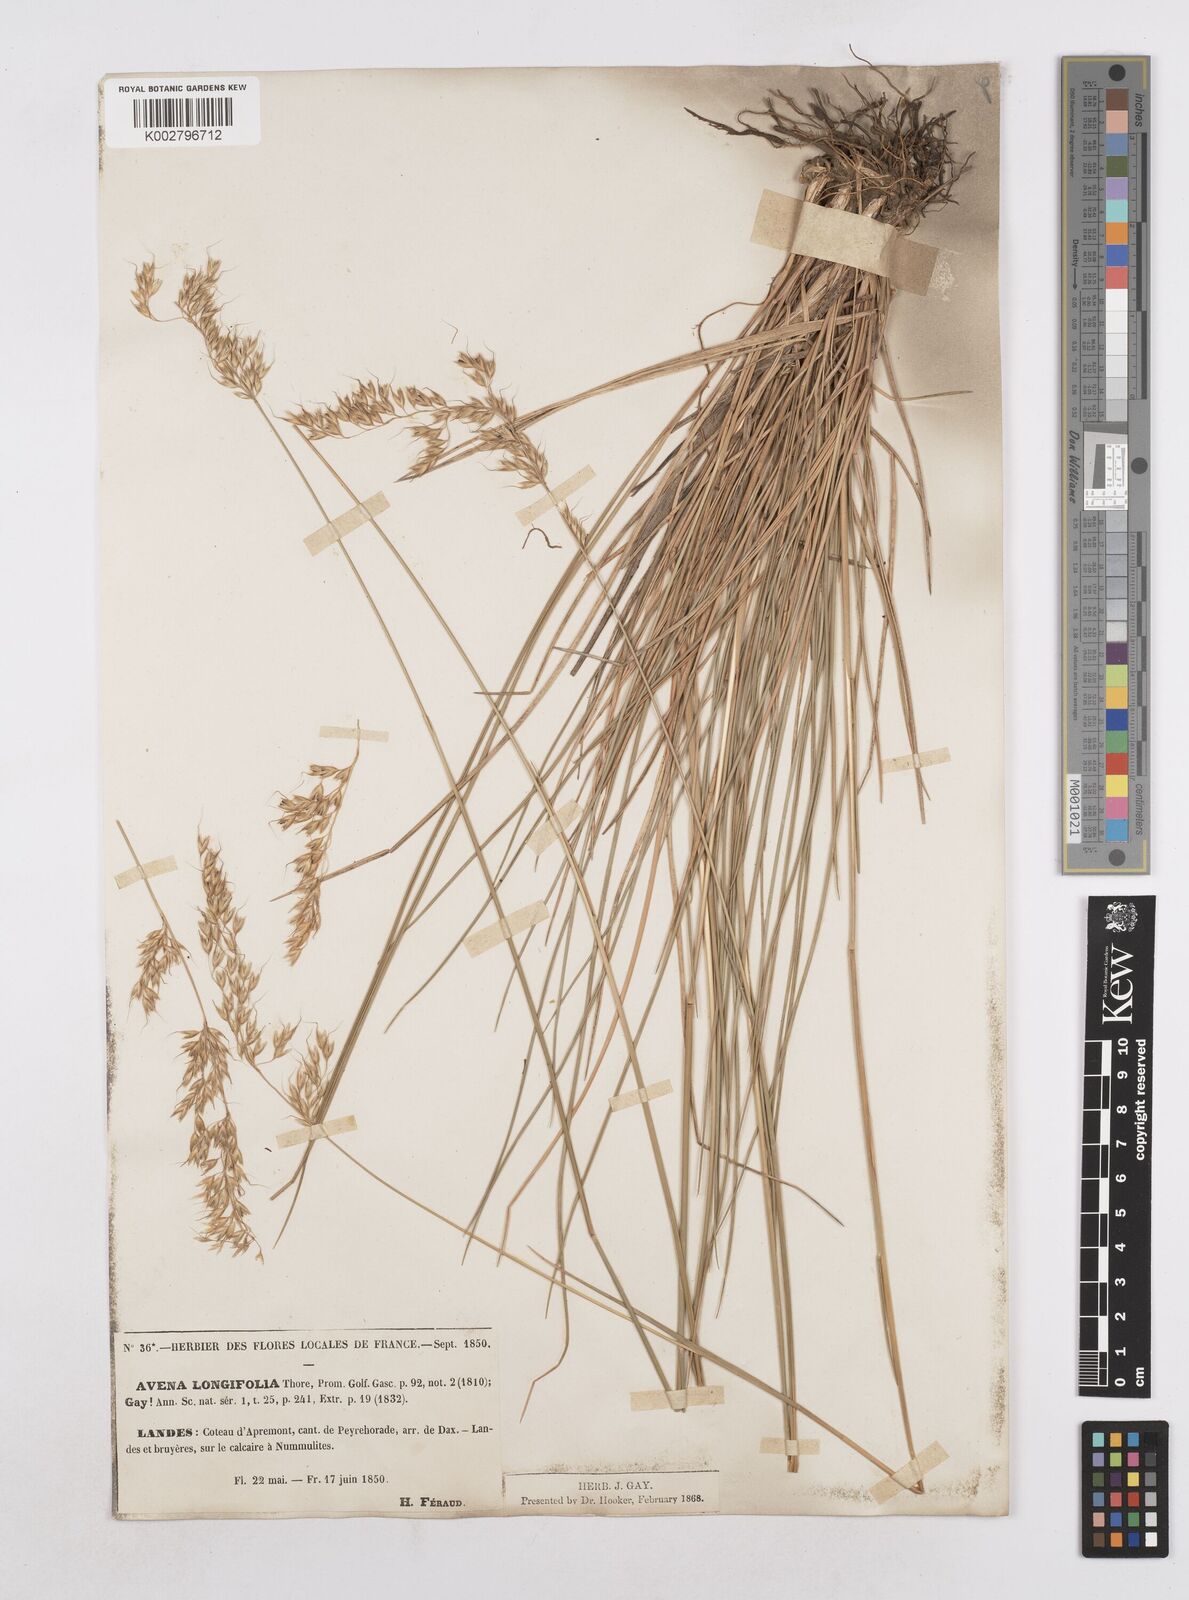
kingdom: Plantae
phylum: Tracheophyta
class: Liliopsida
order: Poales
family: Poaceae
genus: Arrhenatherum
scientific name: Arrhenatherum longifolium
